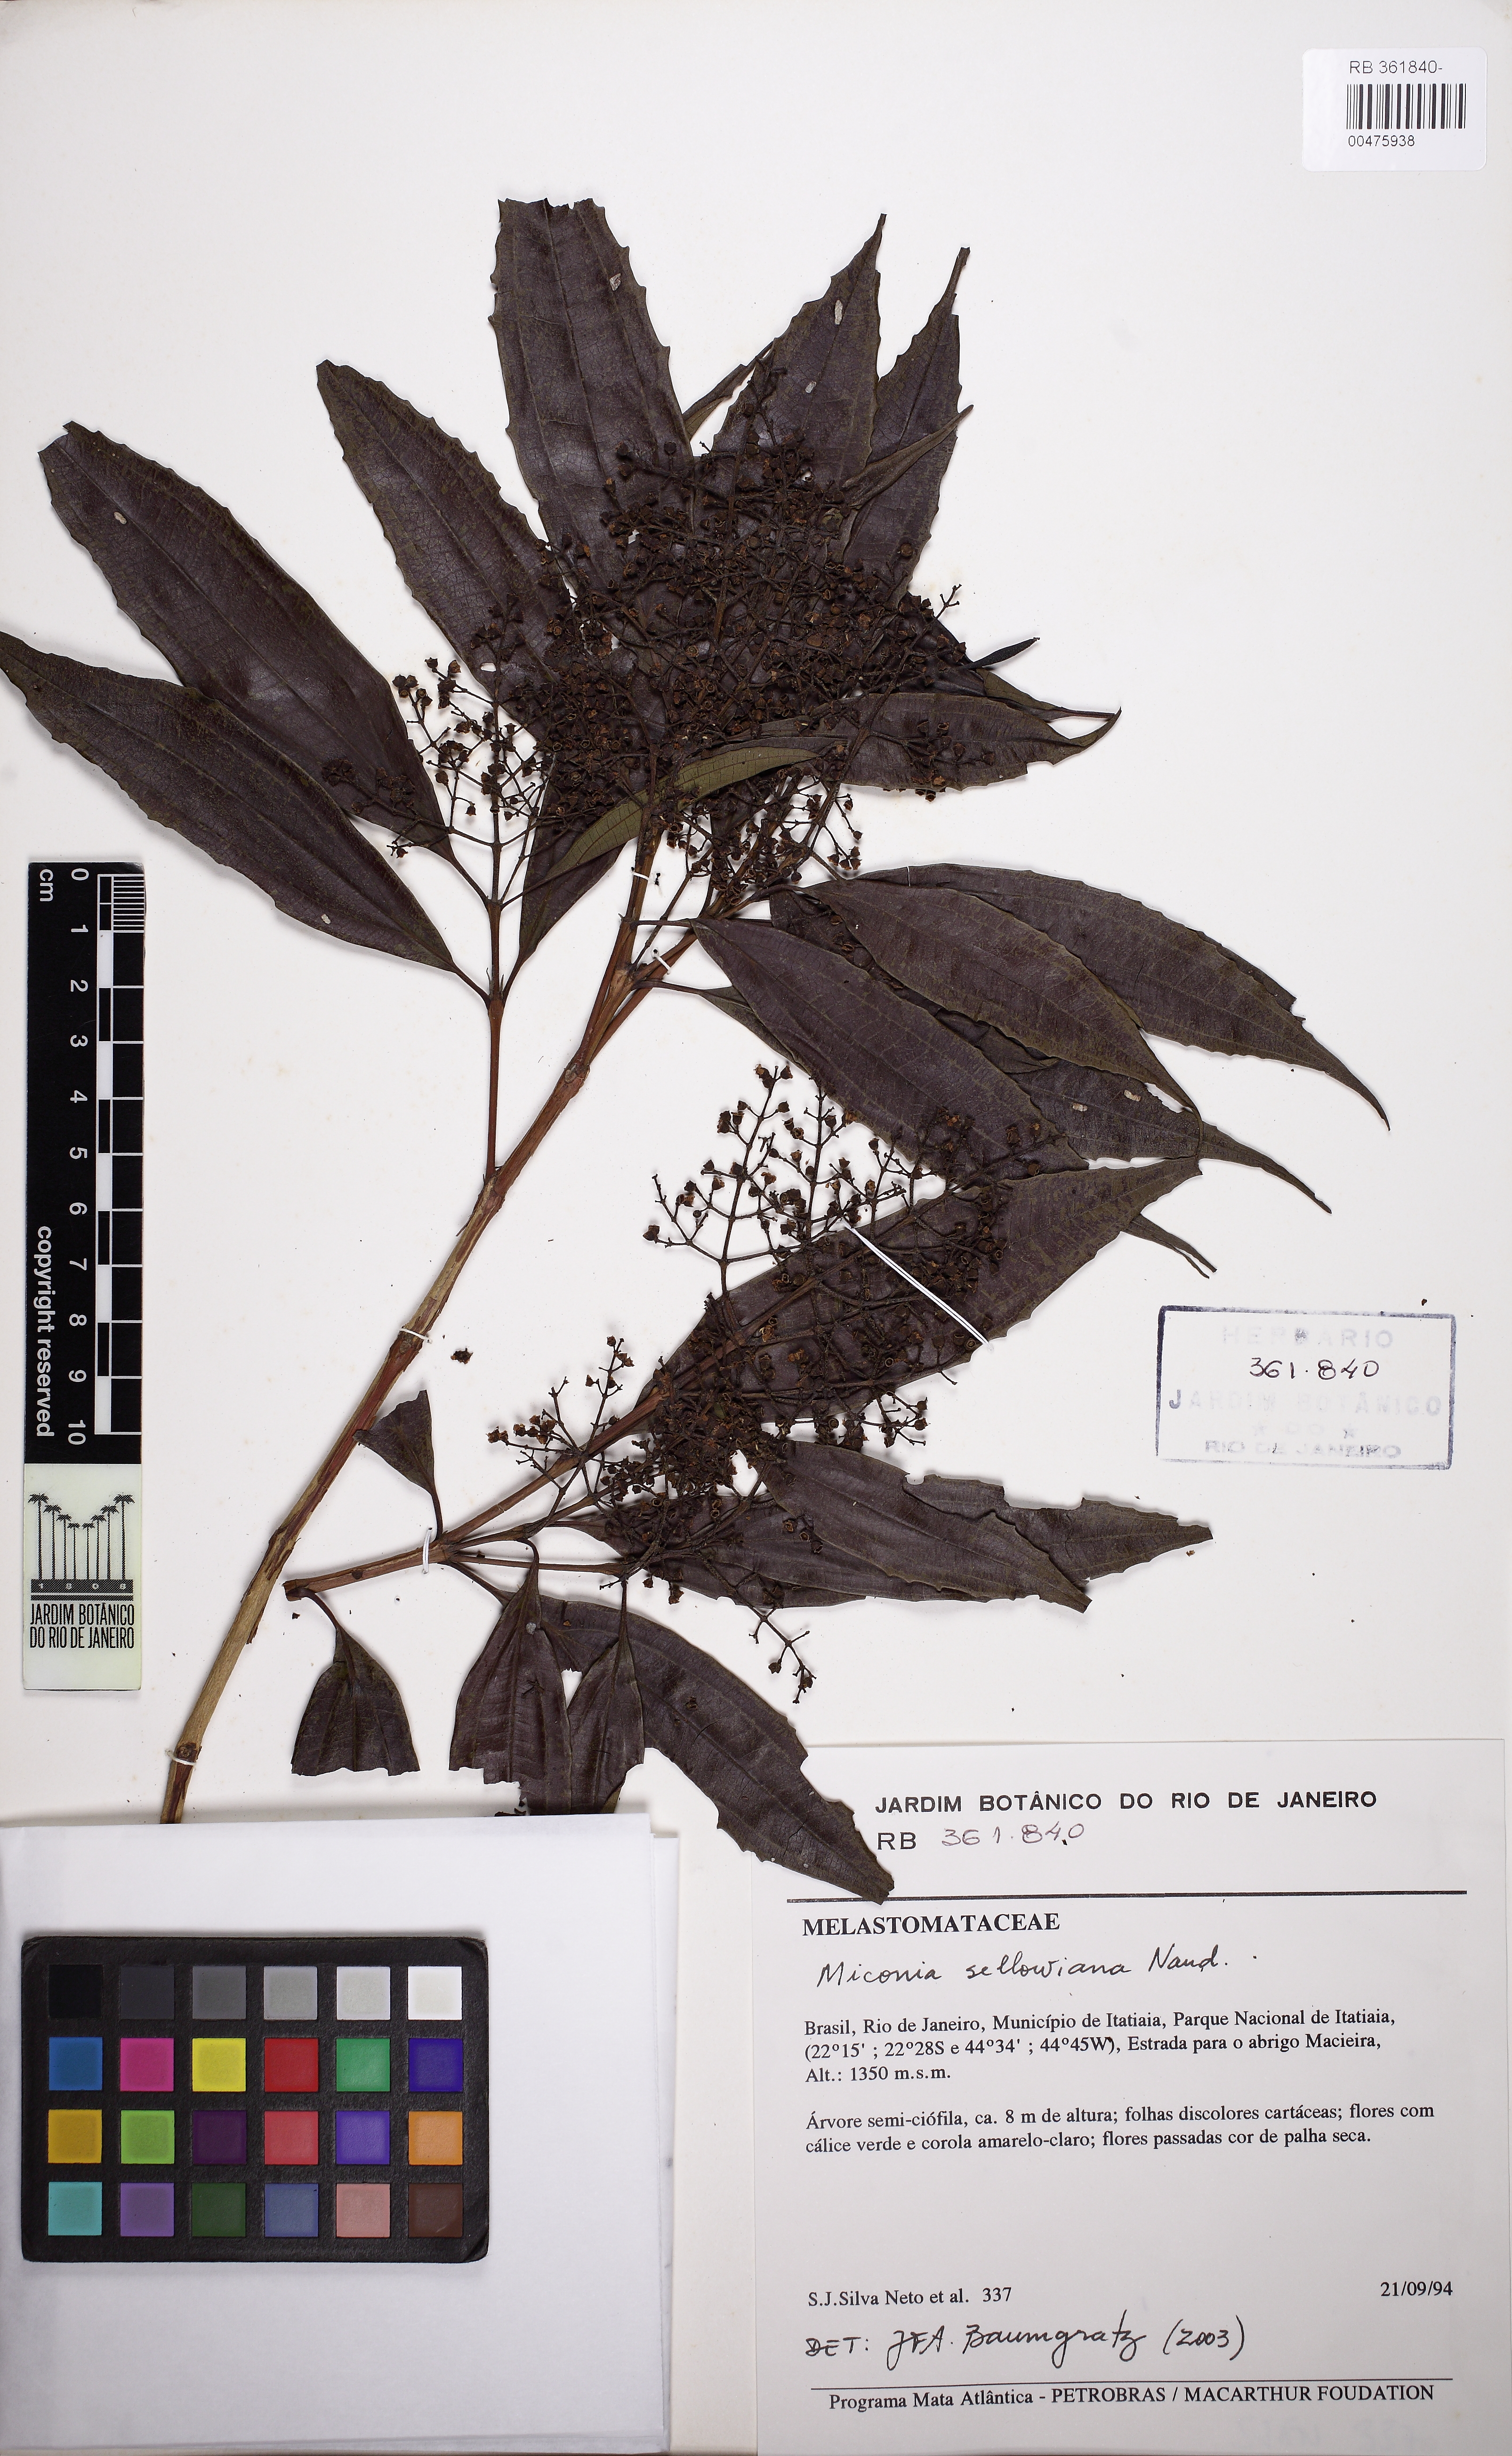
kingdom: Plantae
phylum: Tracheophyta
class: Magnoliopsida
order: Myrtales
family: Melastomataceae
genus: Miconia
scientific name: Miconia sellowiana
